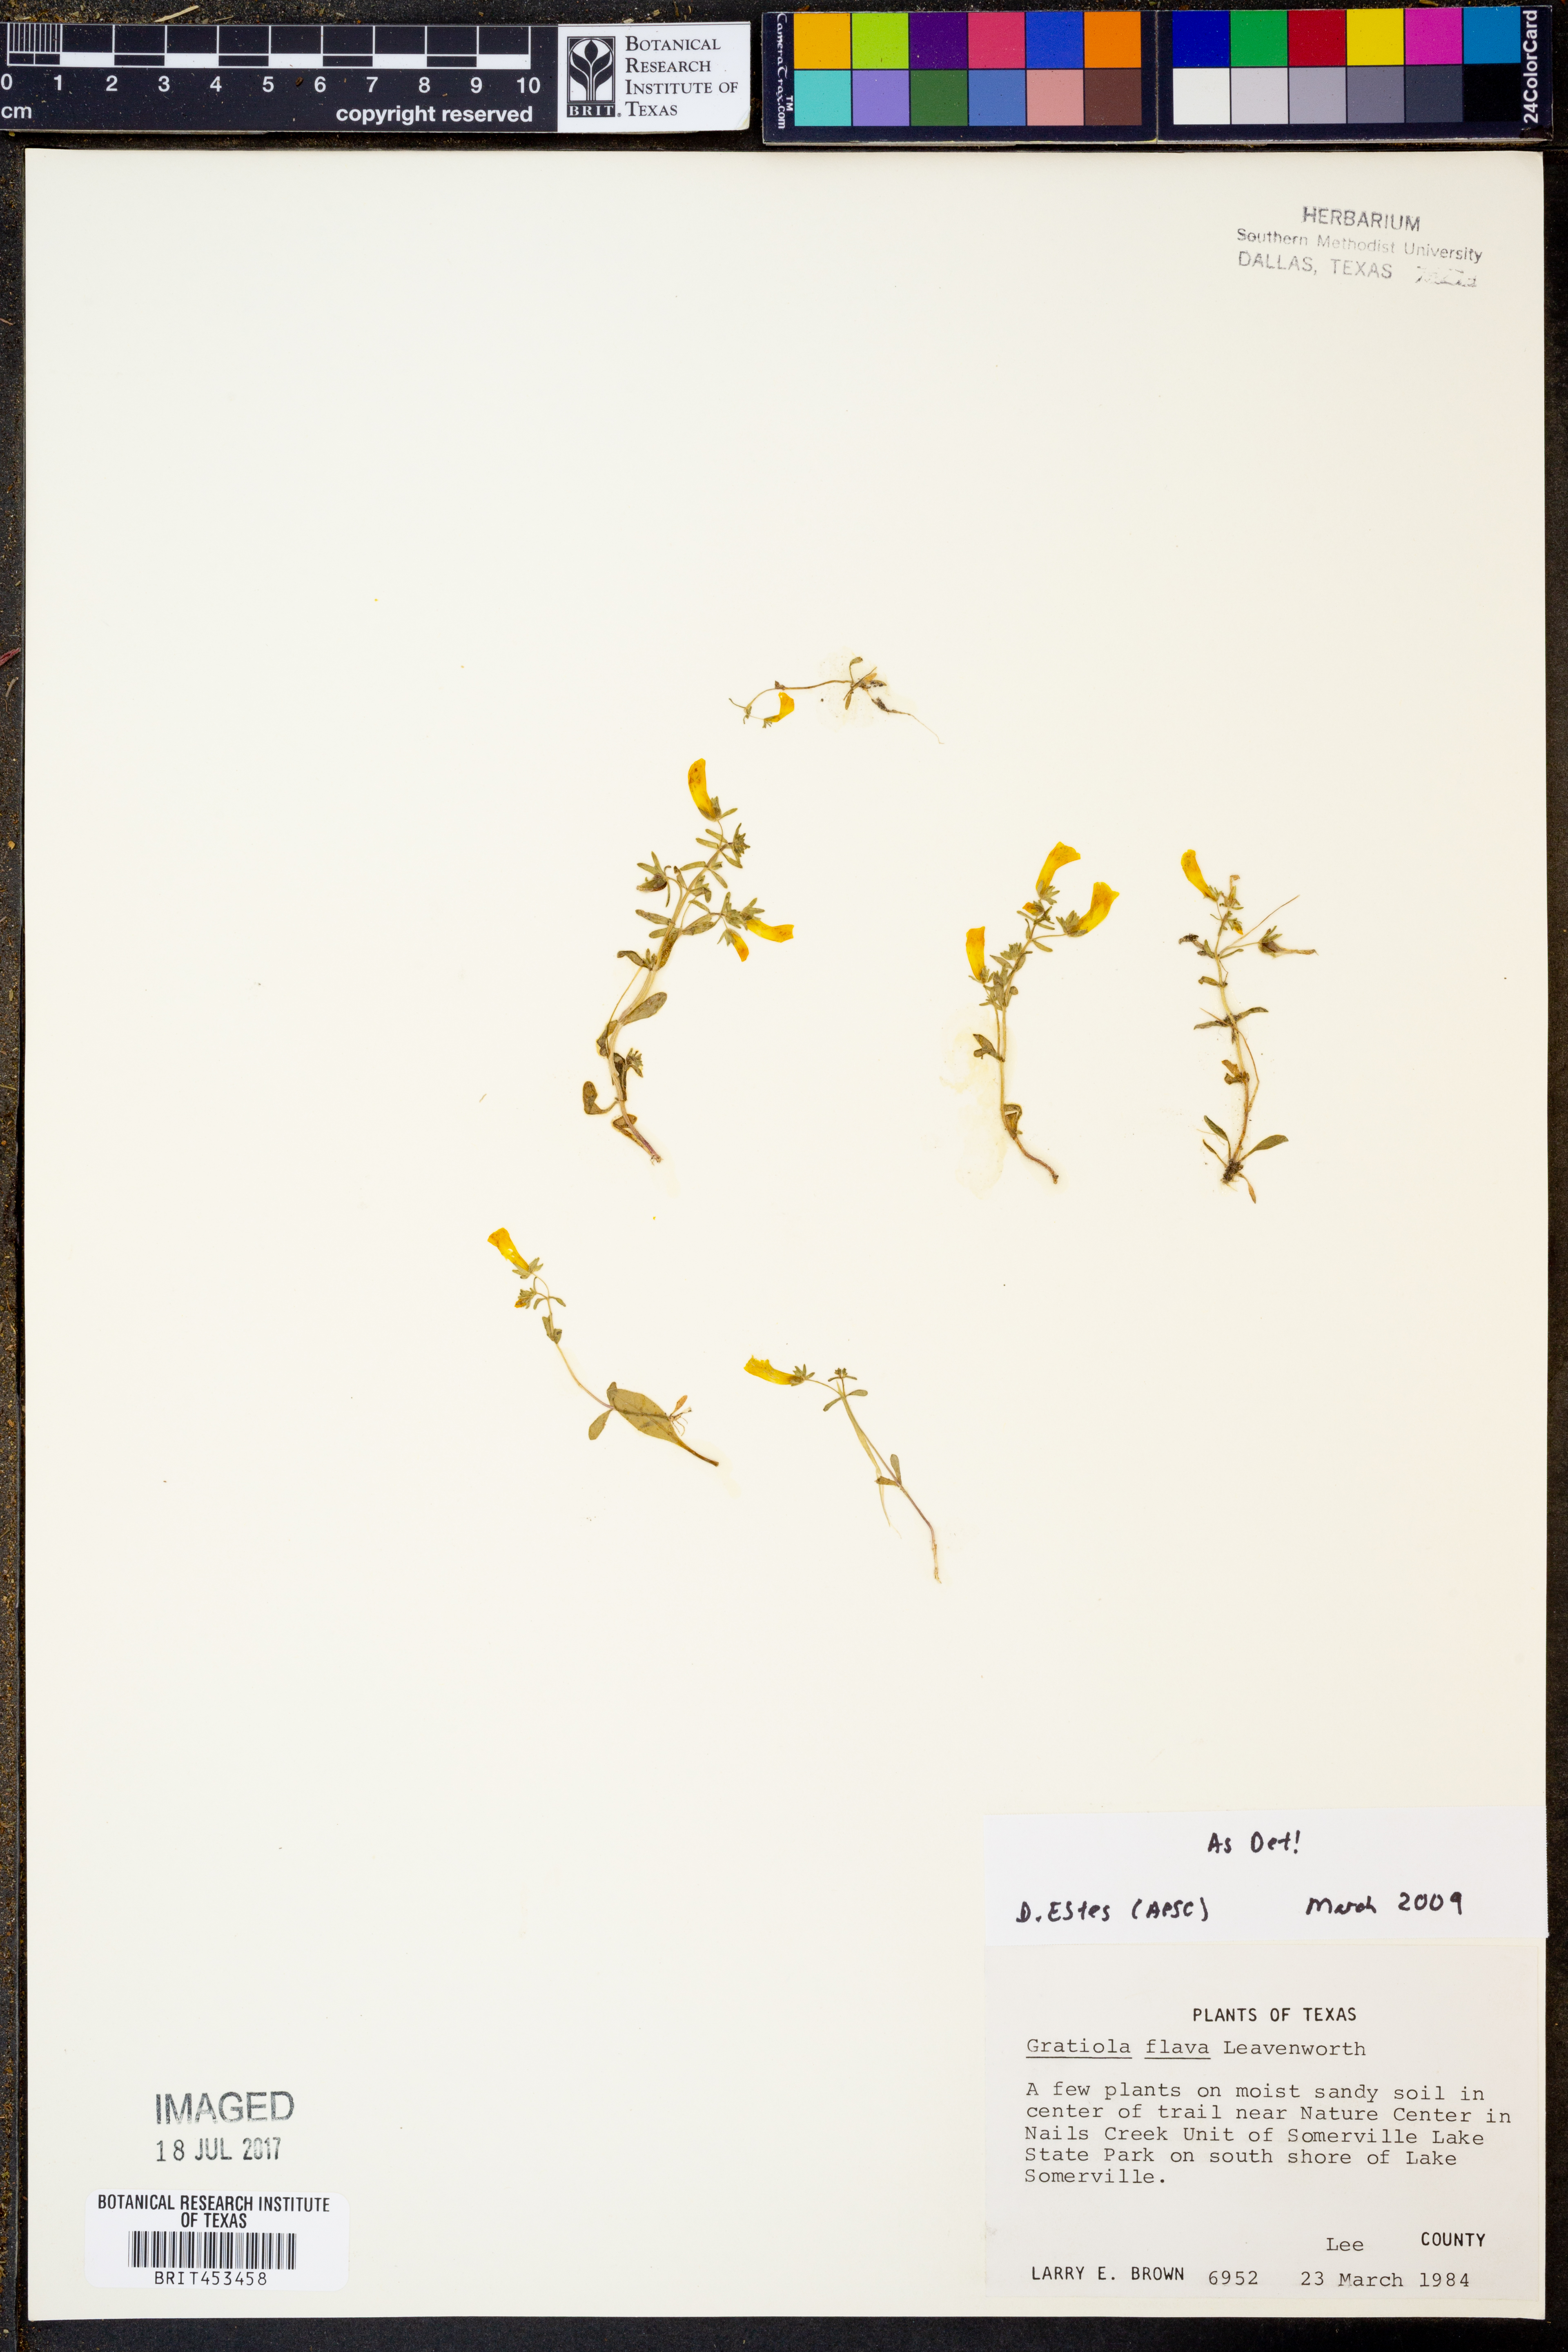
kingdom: Plantae
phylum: Tracheophyta
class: Magnoliopsida
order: Lamiales
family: Plantaginaceae
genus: Gratiola
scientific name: Gratiola flava
